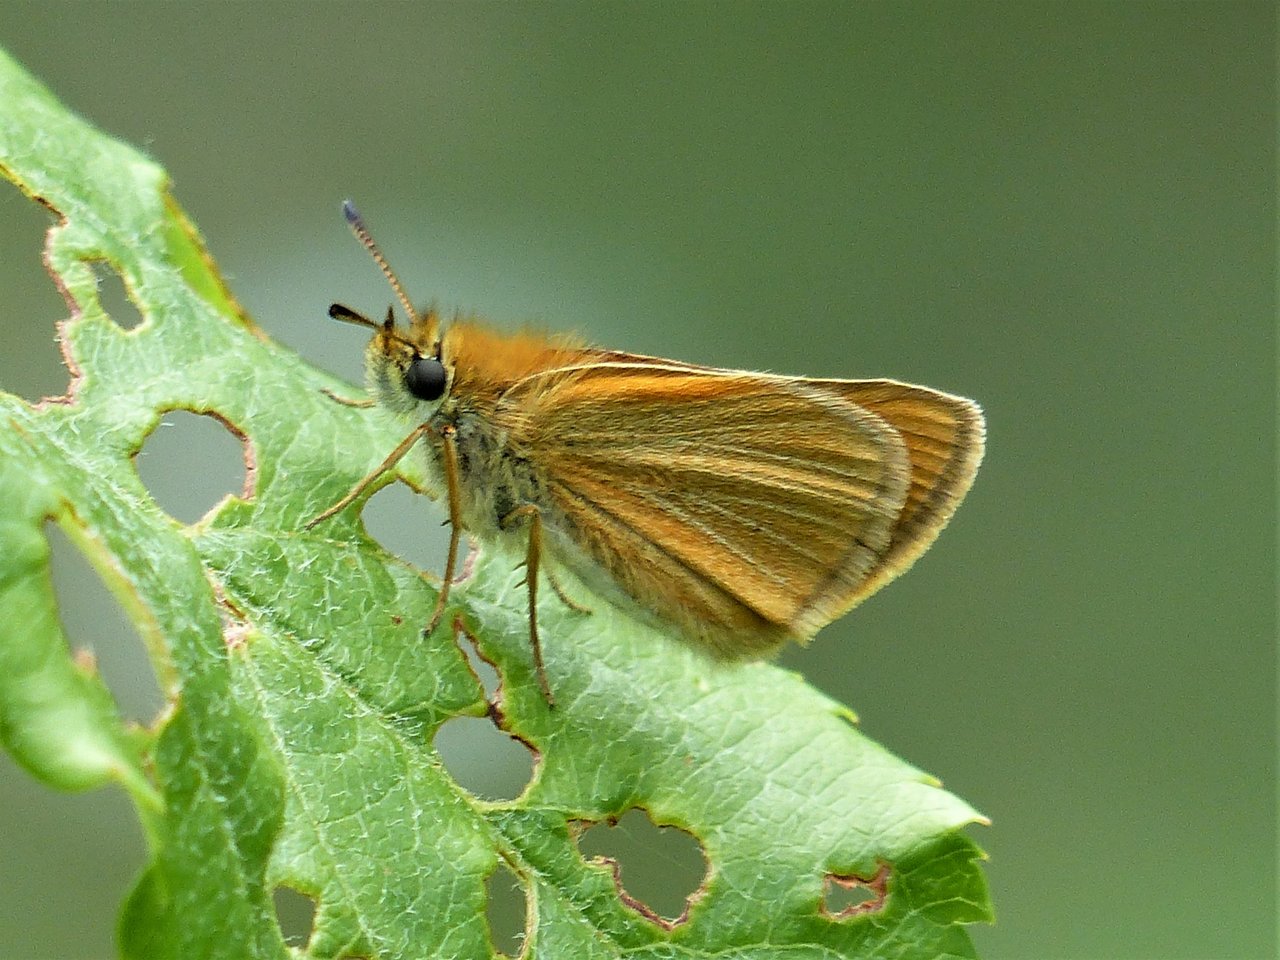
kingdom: Animalia
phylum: Arthropoda
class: Insecta
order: Lepidoptera
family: Hesperiidae
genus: Thymelicus
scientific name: Thymelicus lineola
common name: European Skipper
